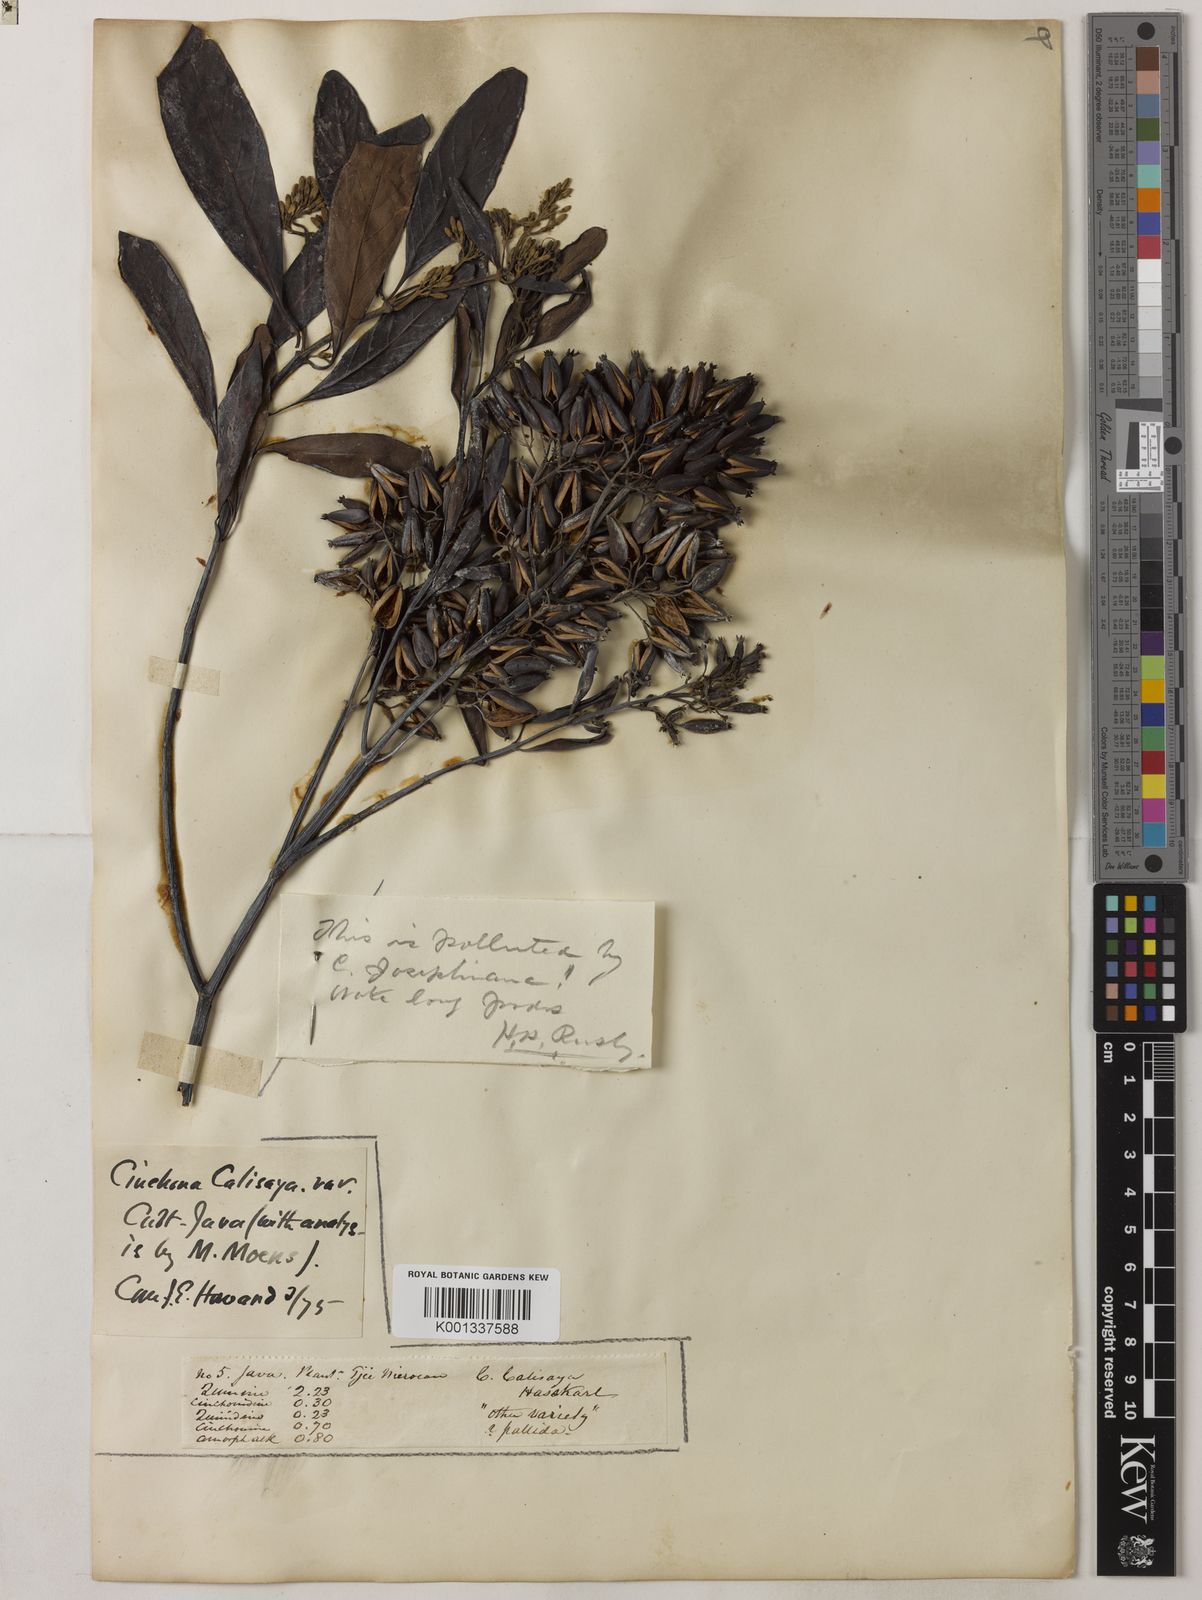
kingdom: Plantae
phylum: Tracheophyta
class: Magnoliopsida
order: Gentianales
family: Rubiaceae
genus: Cinchona
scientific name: Cinchona calisaya
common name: Ledgerbark
